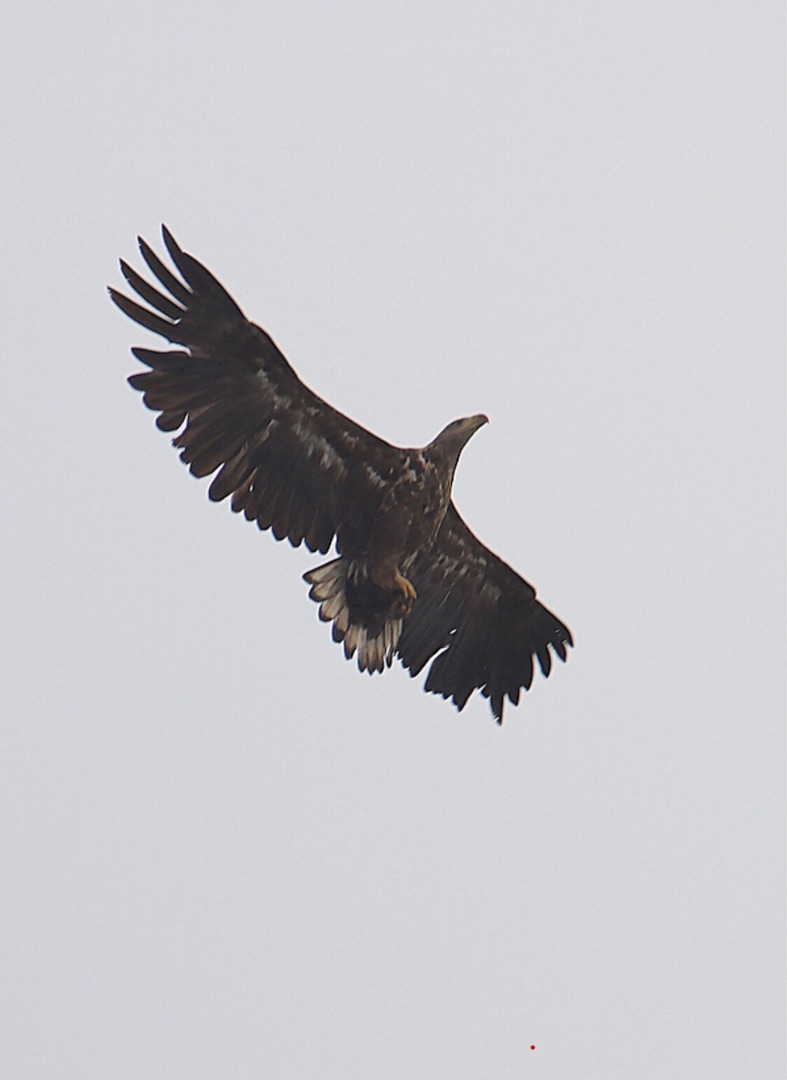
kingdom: Animalia
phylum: Chordata
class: Aves
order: Accipitriformes
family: Accipitridae
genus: Haliaeetus
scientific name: Haliaeetus albicilla
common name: Havørn
